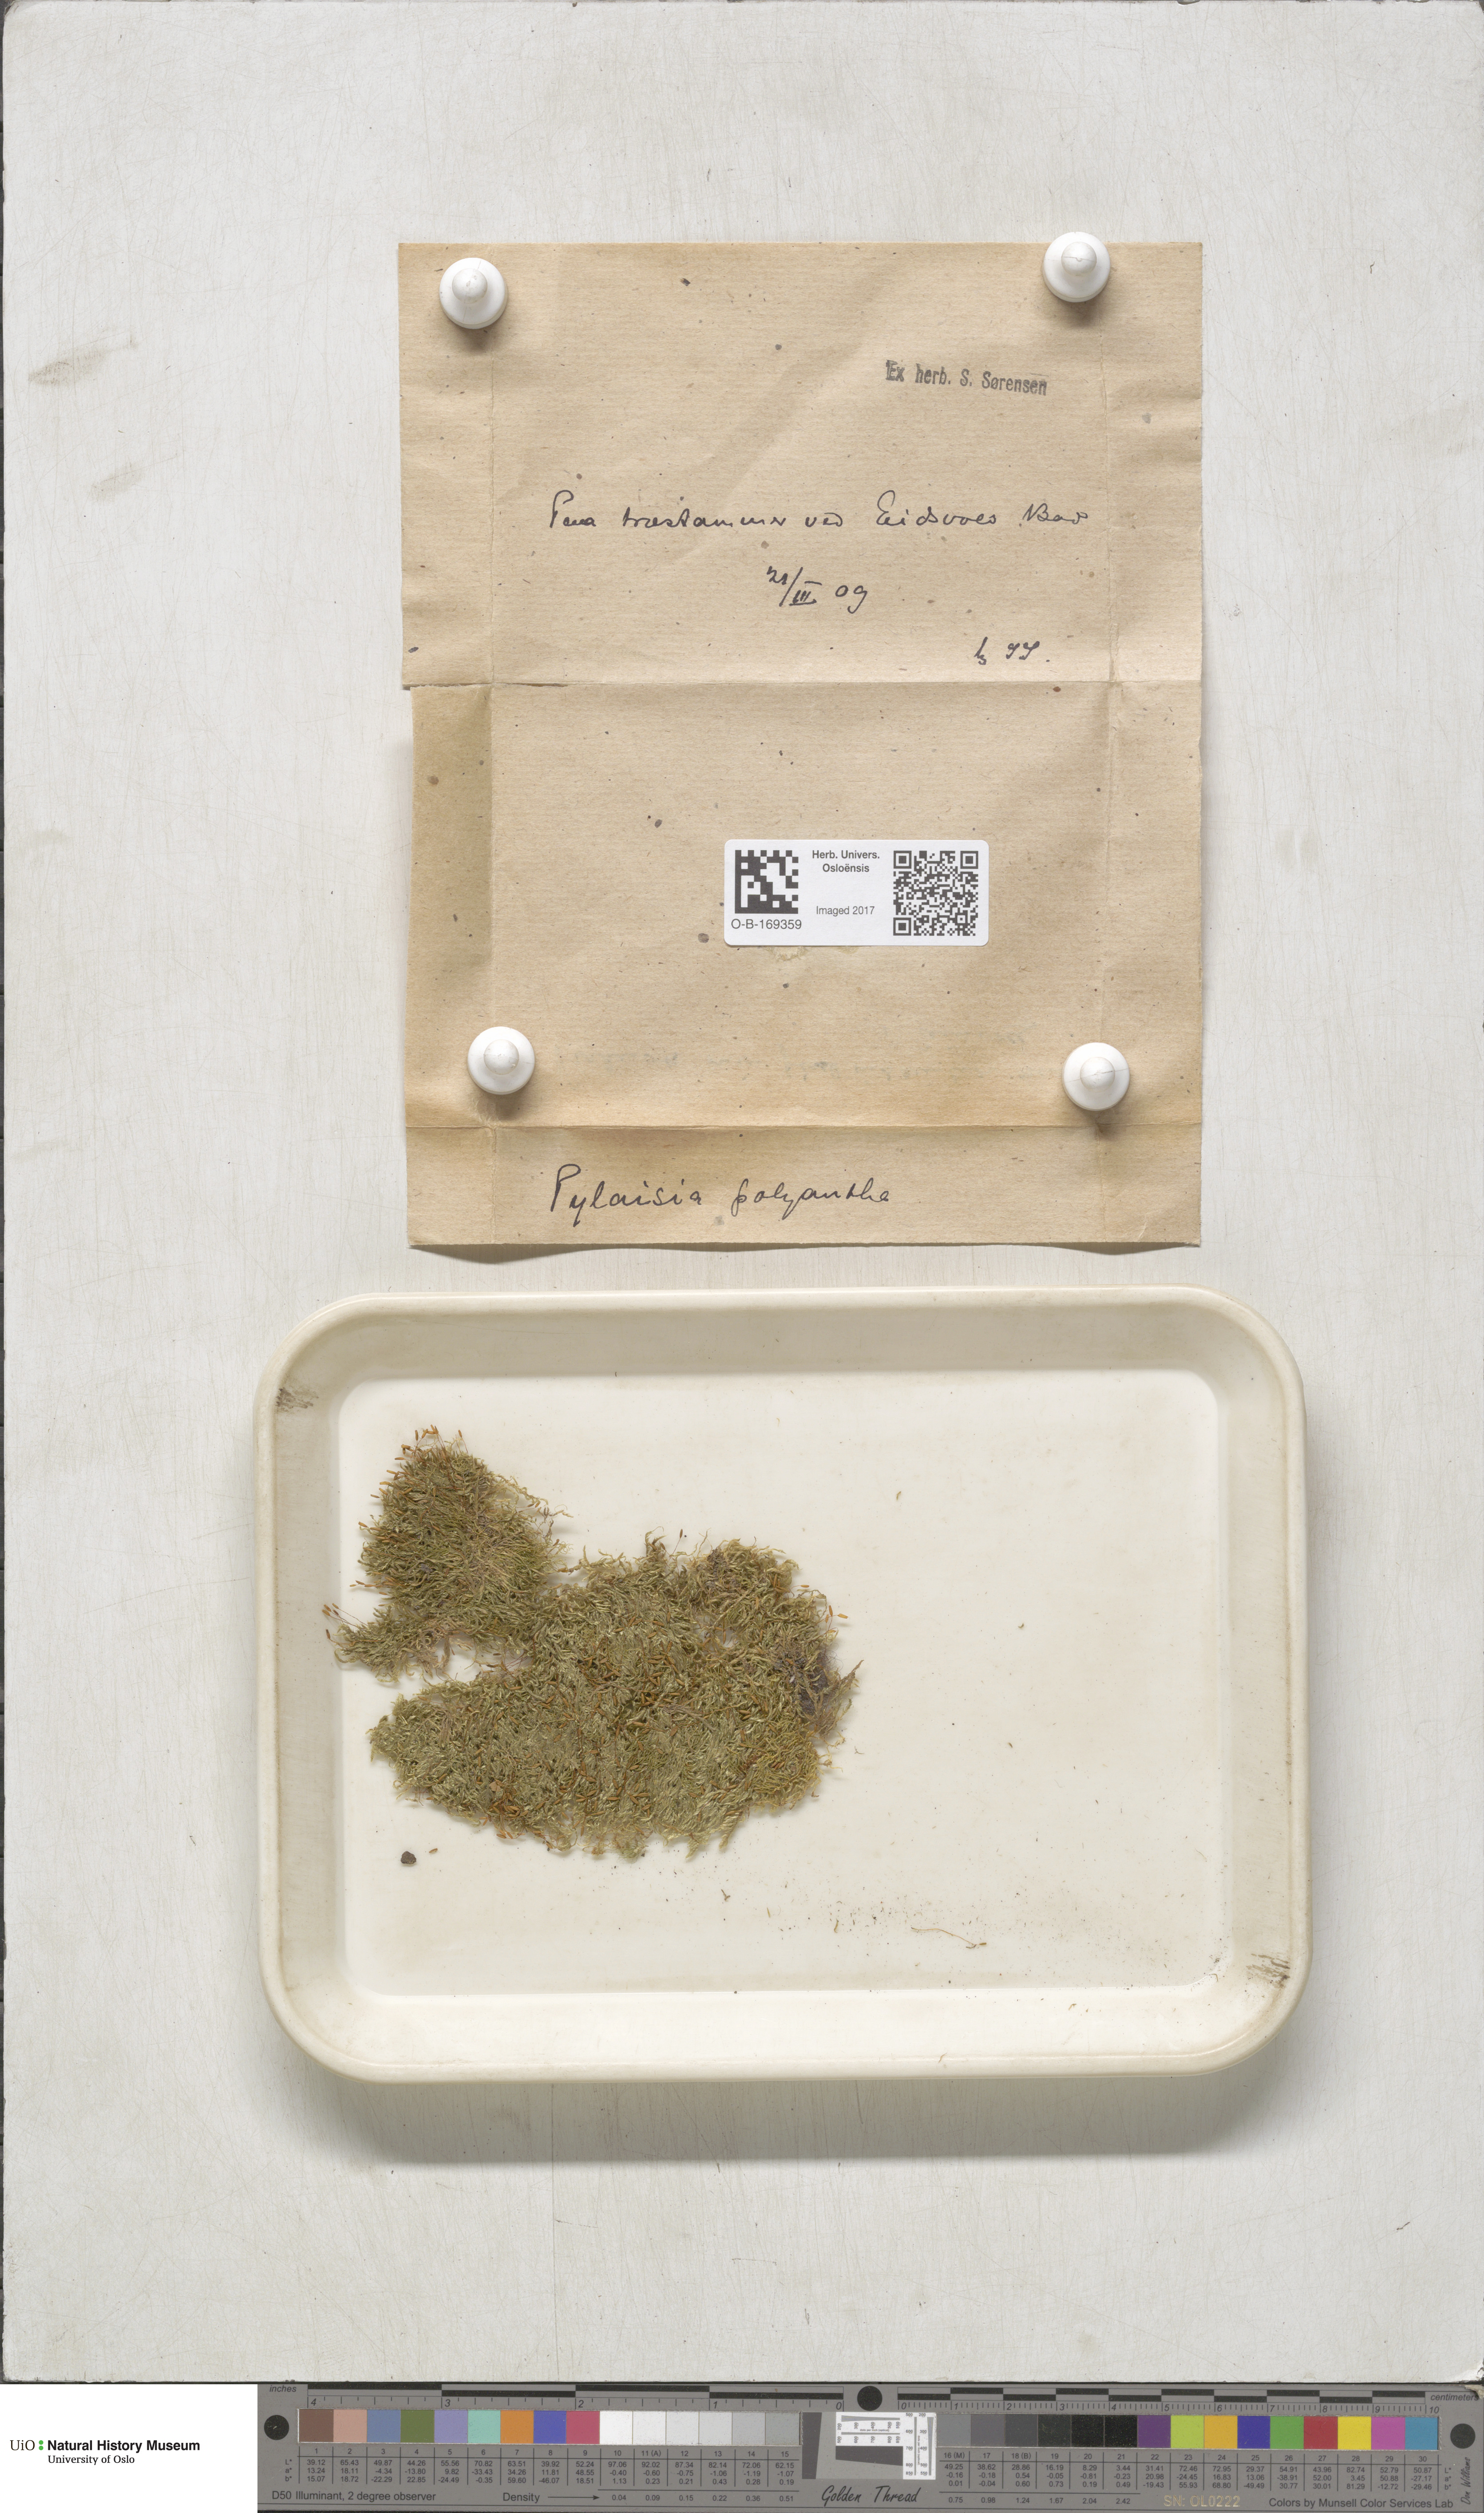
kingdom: Plantae
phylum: Bryophyta
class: Bryopsida
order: Hypnales
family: Pylaisiaceae
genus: Pylaisia
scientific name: Pylaisia polyantha
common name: Many-flowered leskea
